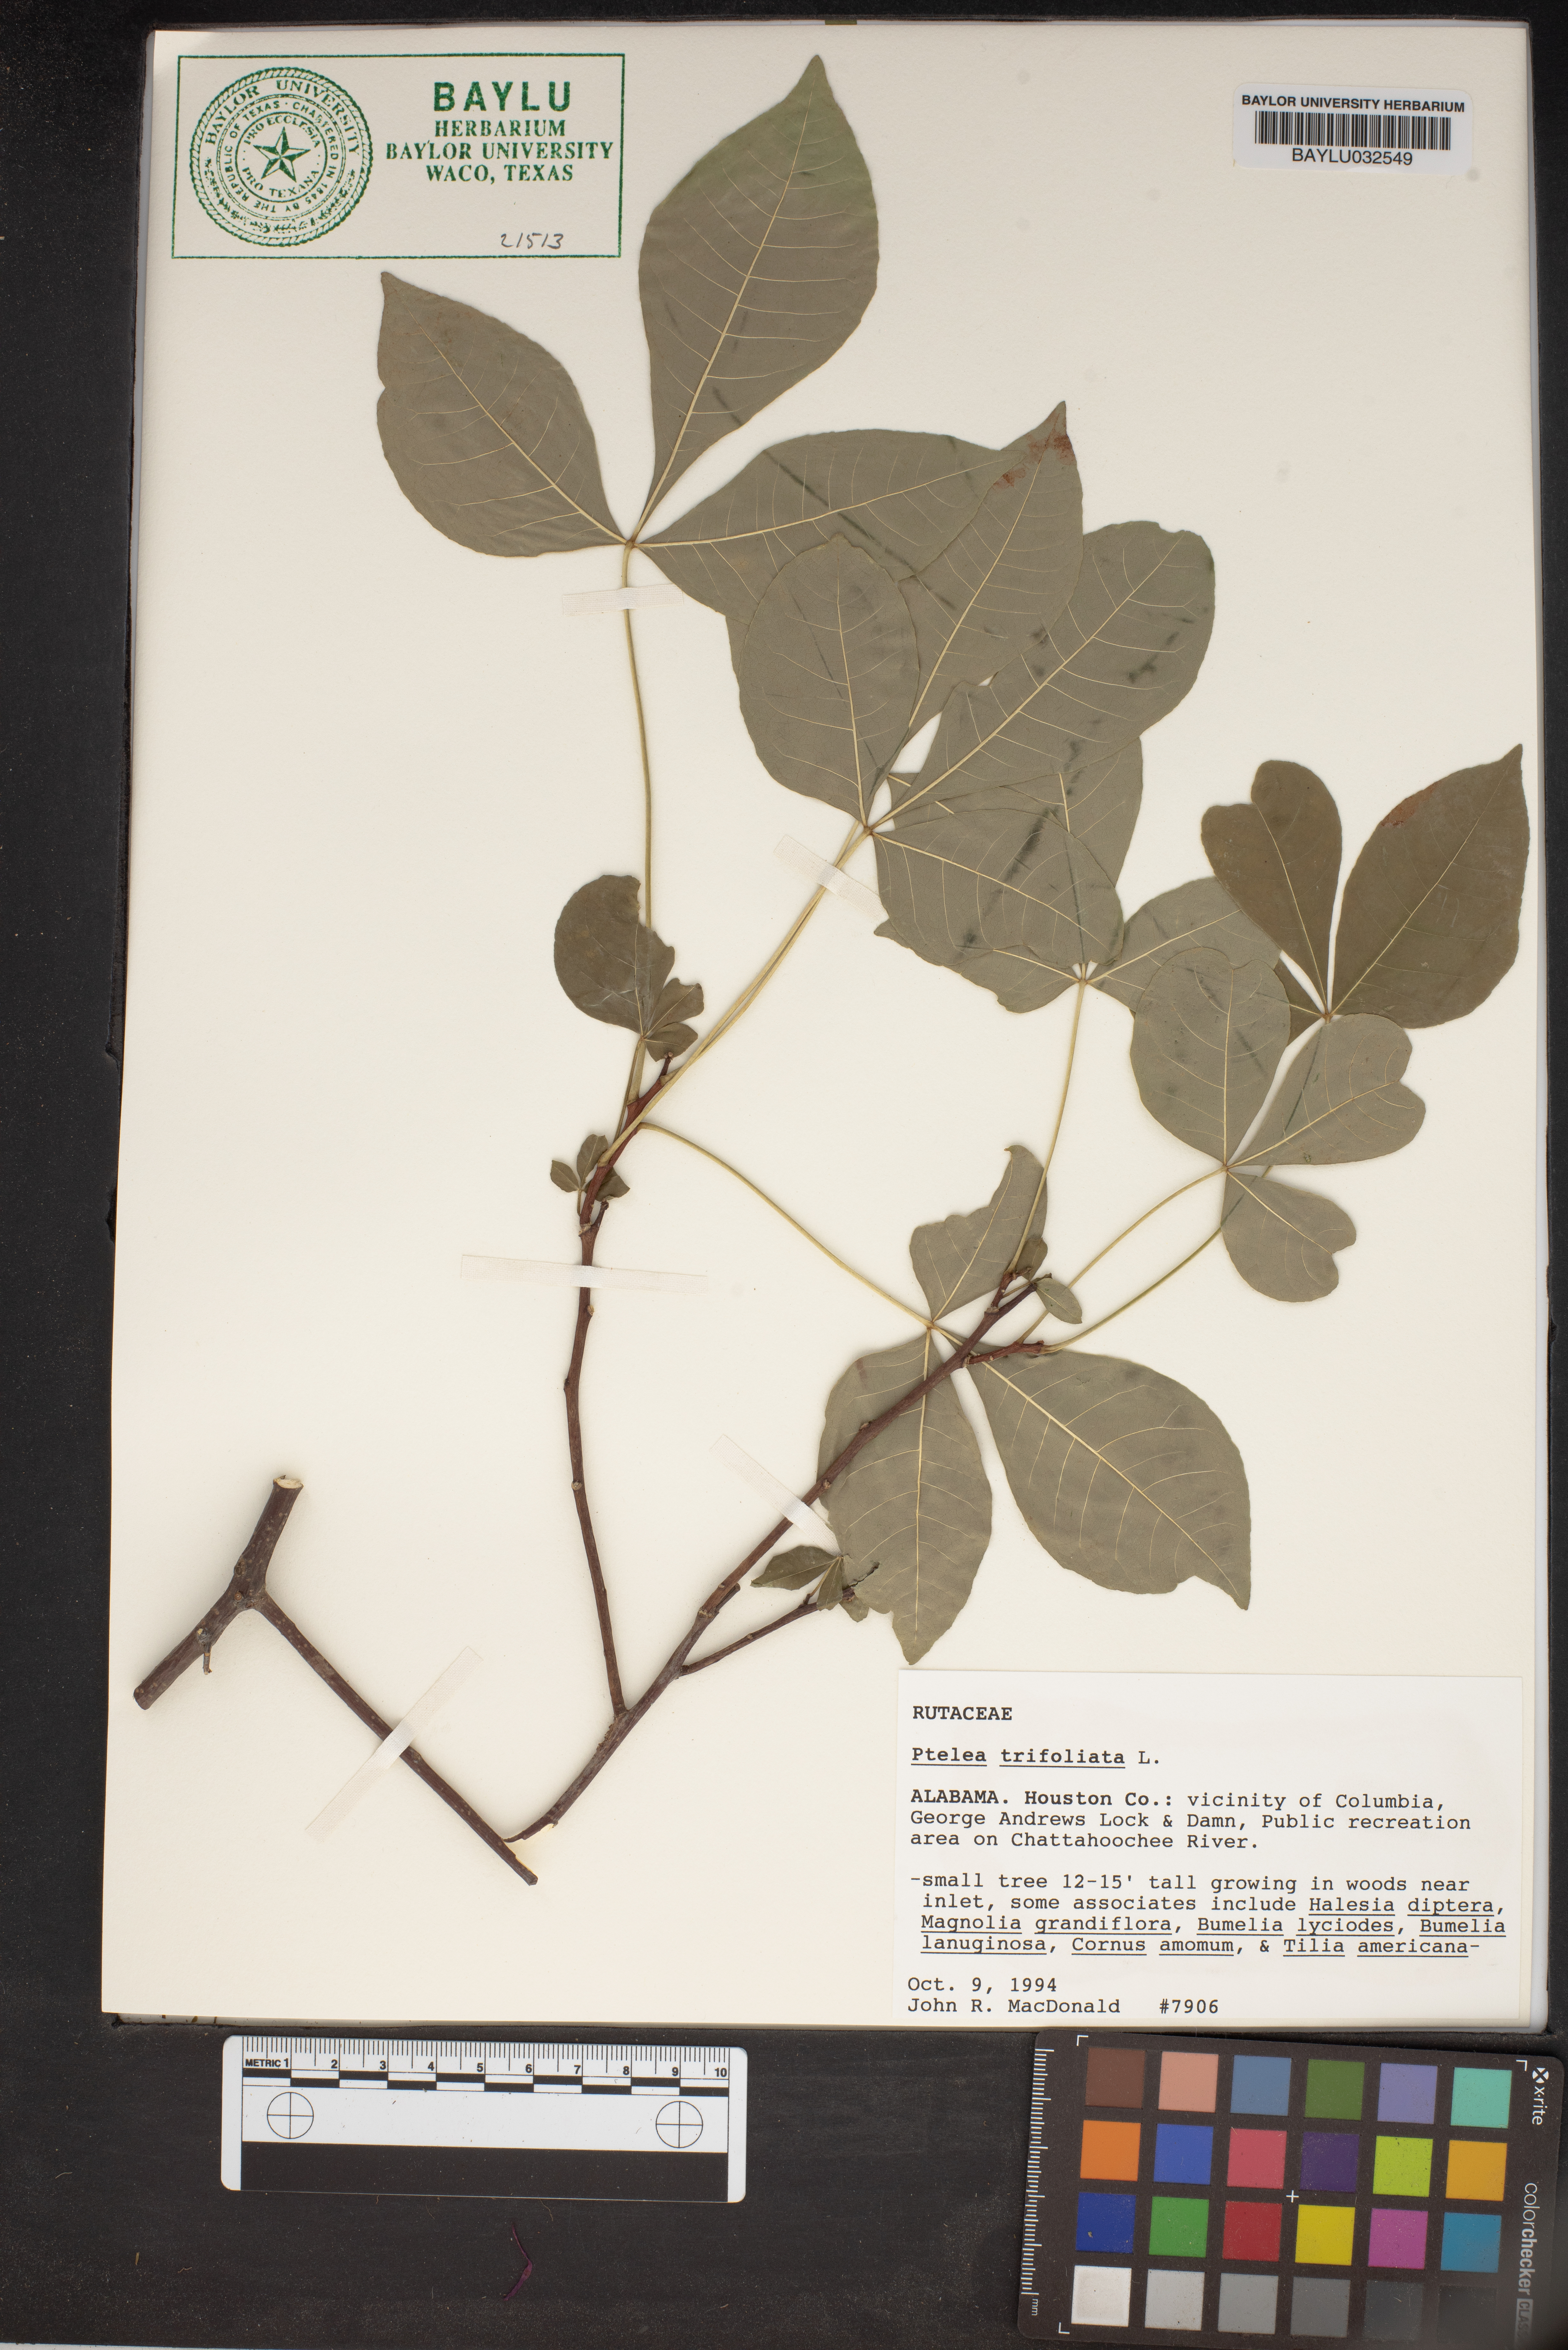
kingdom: Plantae
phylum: Tracheophyta
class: Magnoliopsida
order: Sapindales
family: Rutaceae
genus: Ptelea
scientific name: Ptelea trifoliata
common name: Common hop-tree
